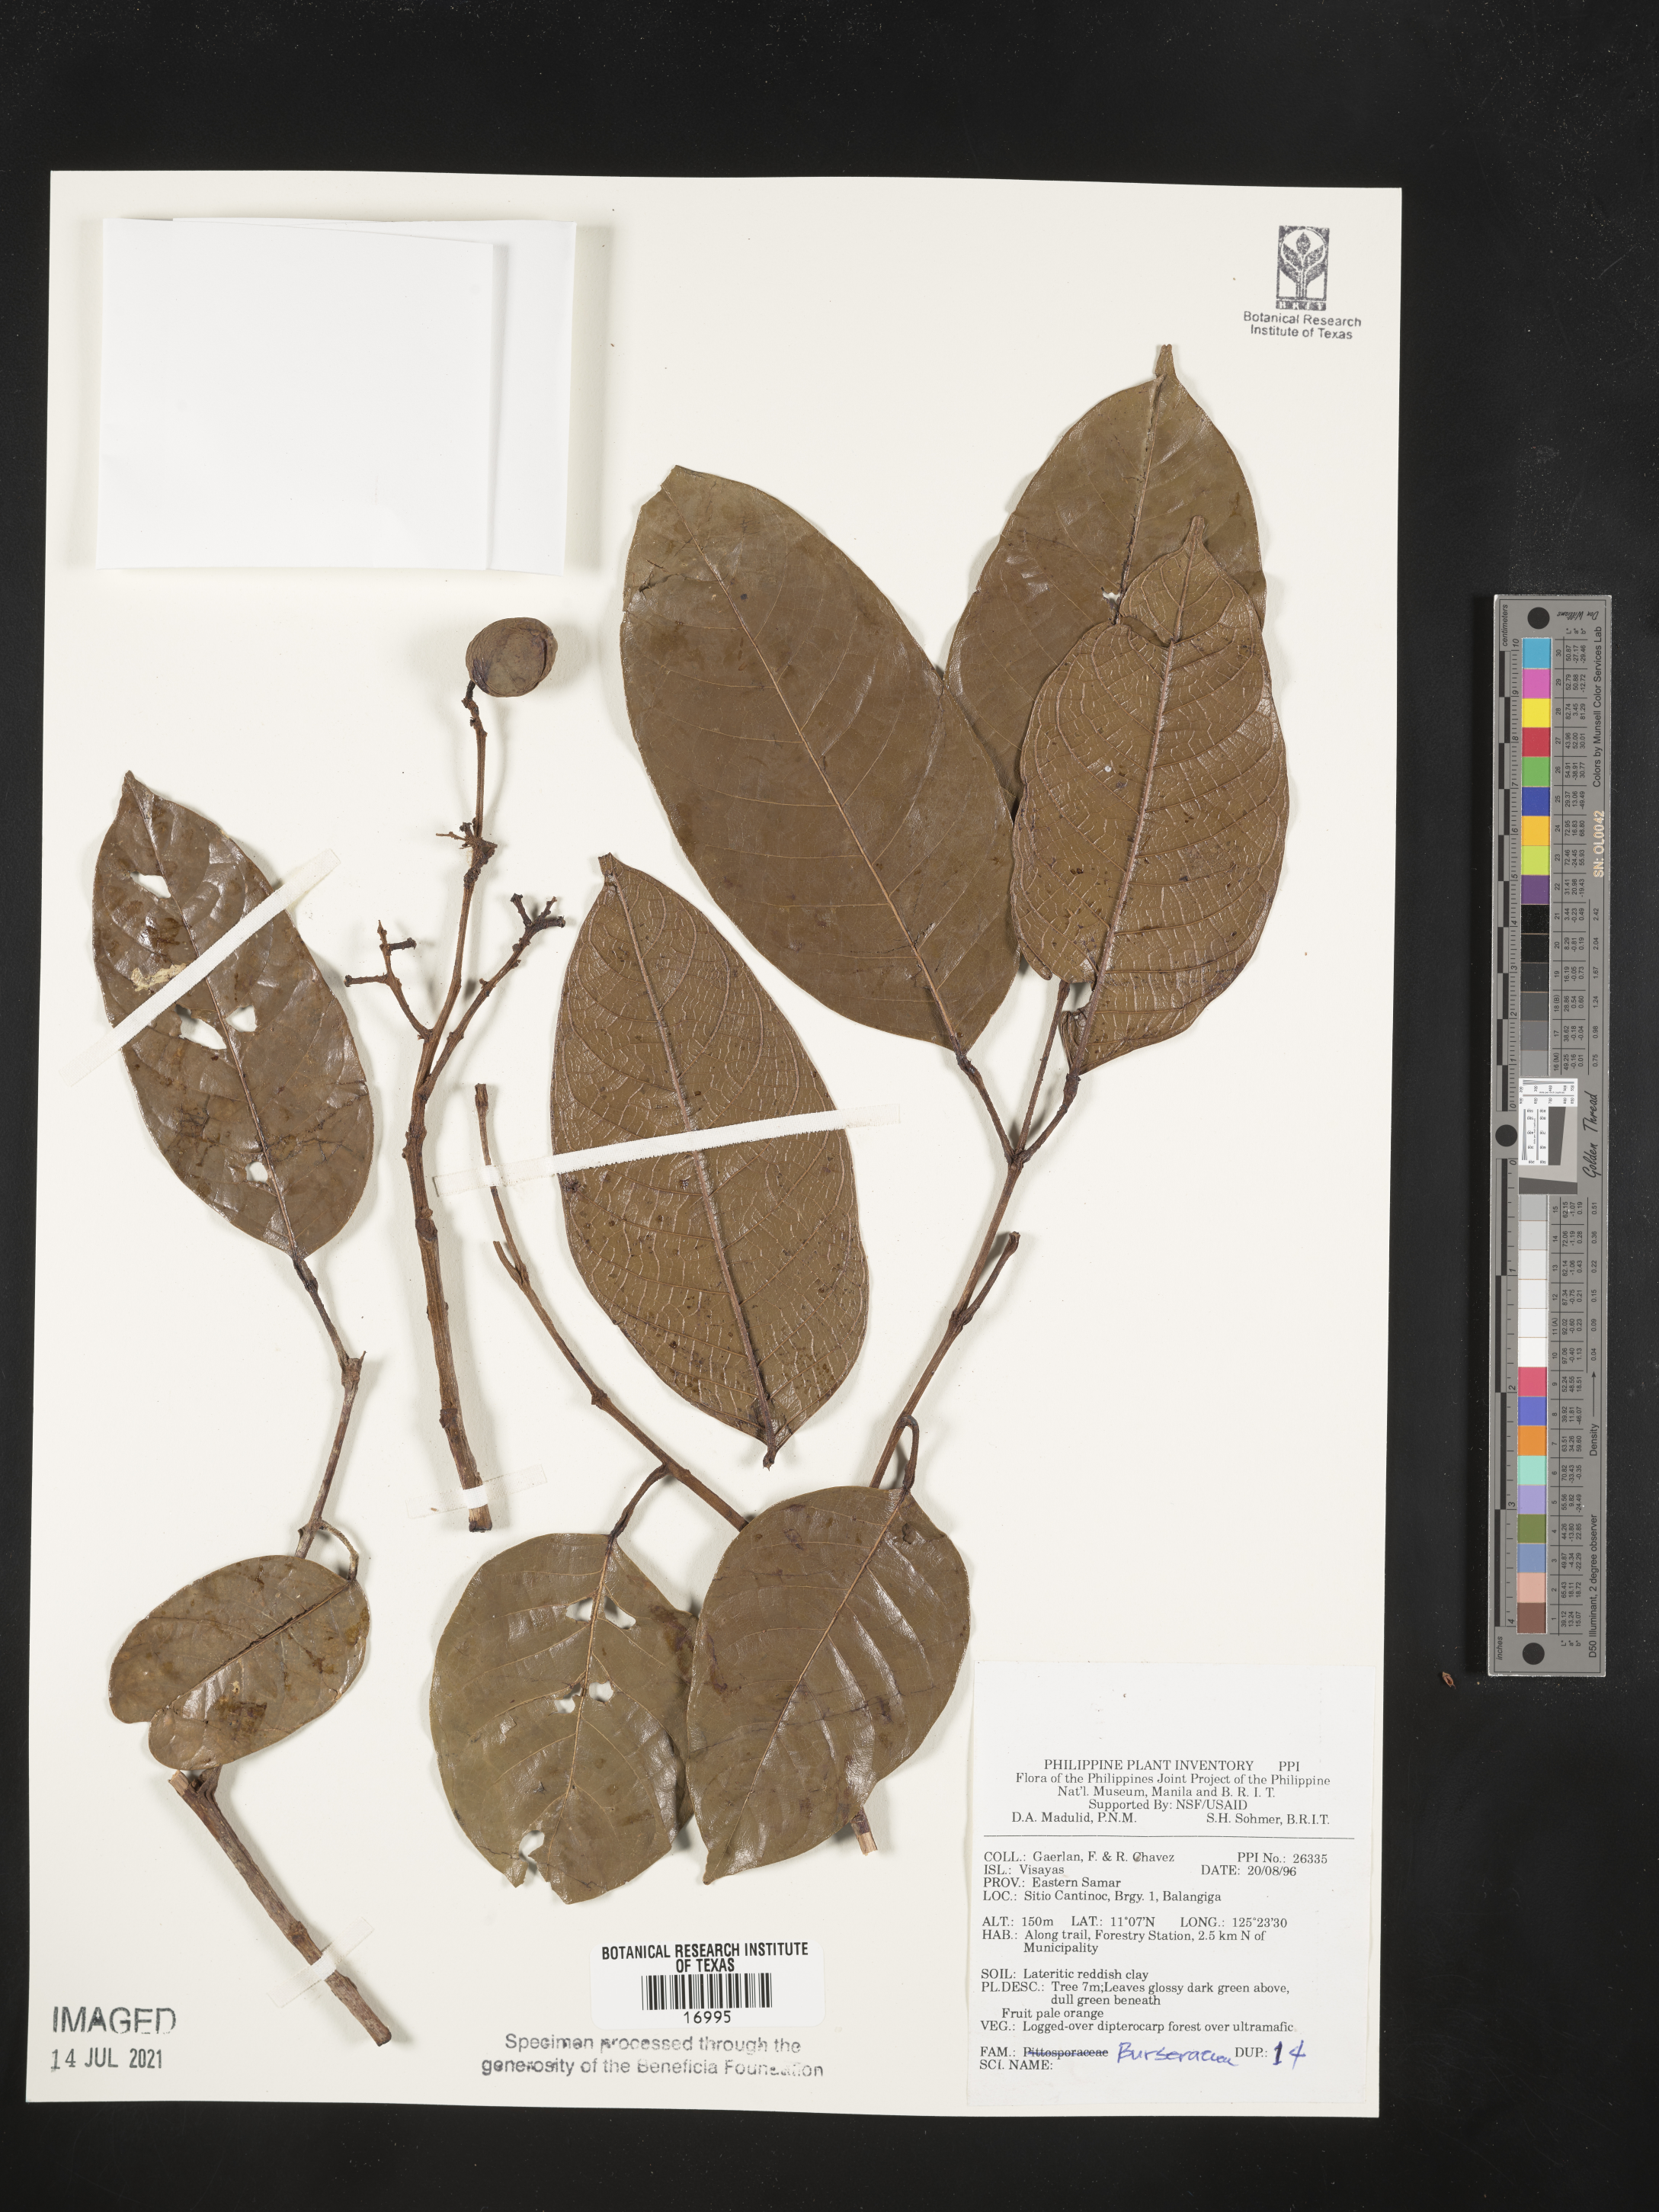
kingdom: Plantae
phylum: Tracheophyta
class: Magnoliopsida
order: Sapindales
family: Burseraceae
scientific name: Burseraceae
